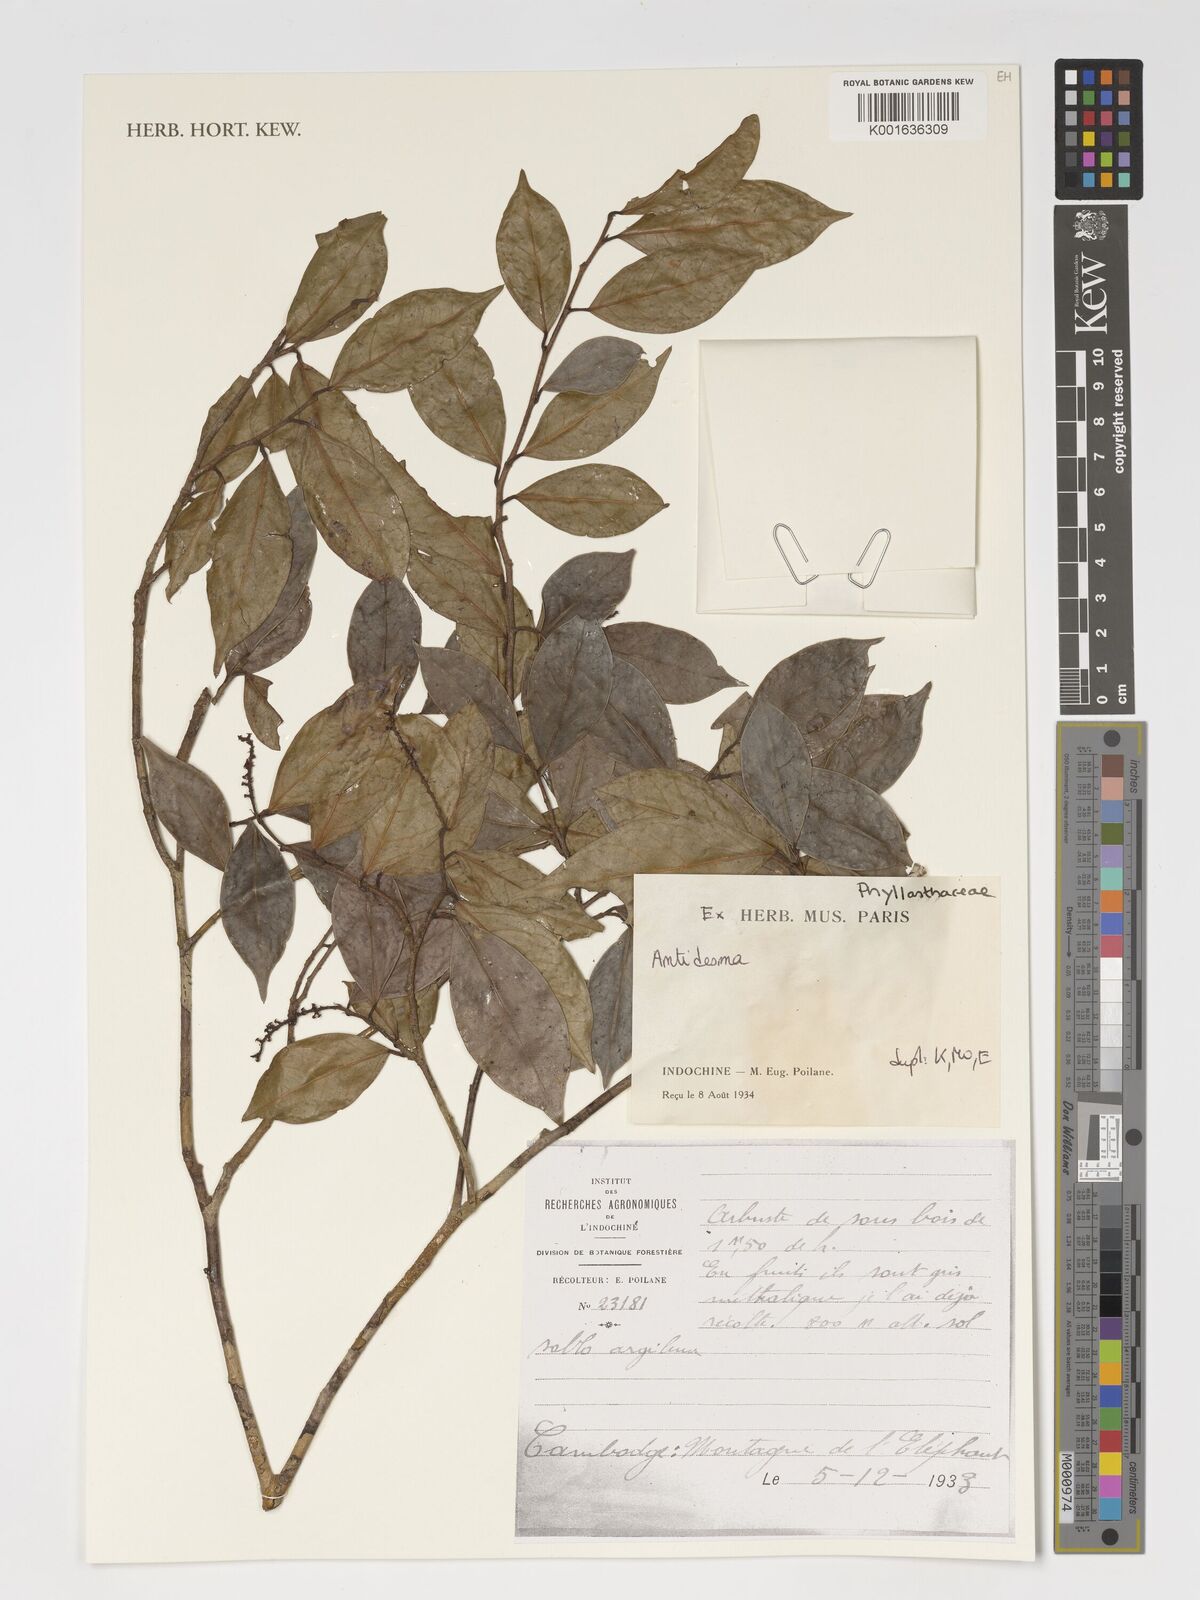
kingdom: Plantae
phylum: Tracheophyta
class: Magnoliopsida
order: Malpighiales
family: Phyllanthaceae
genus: Antidesma
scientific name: Antidesma
